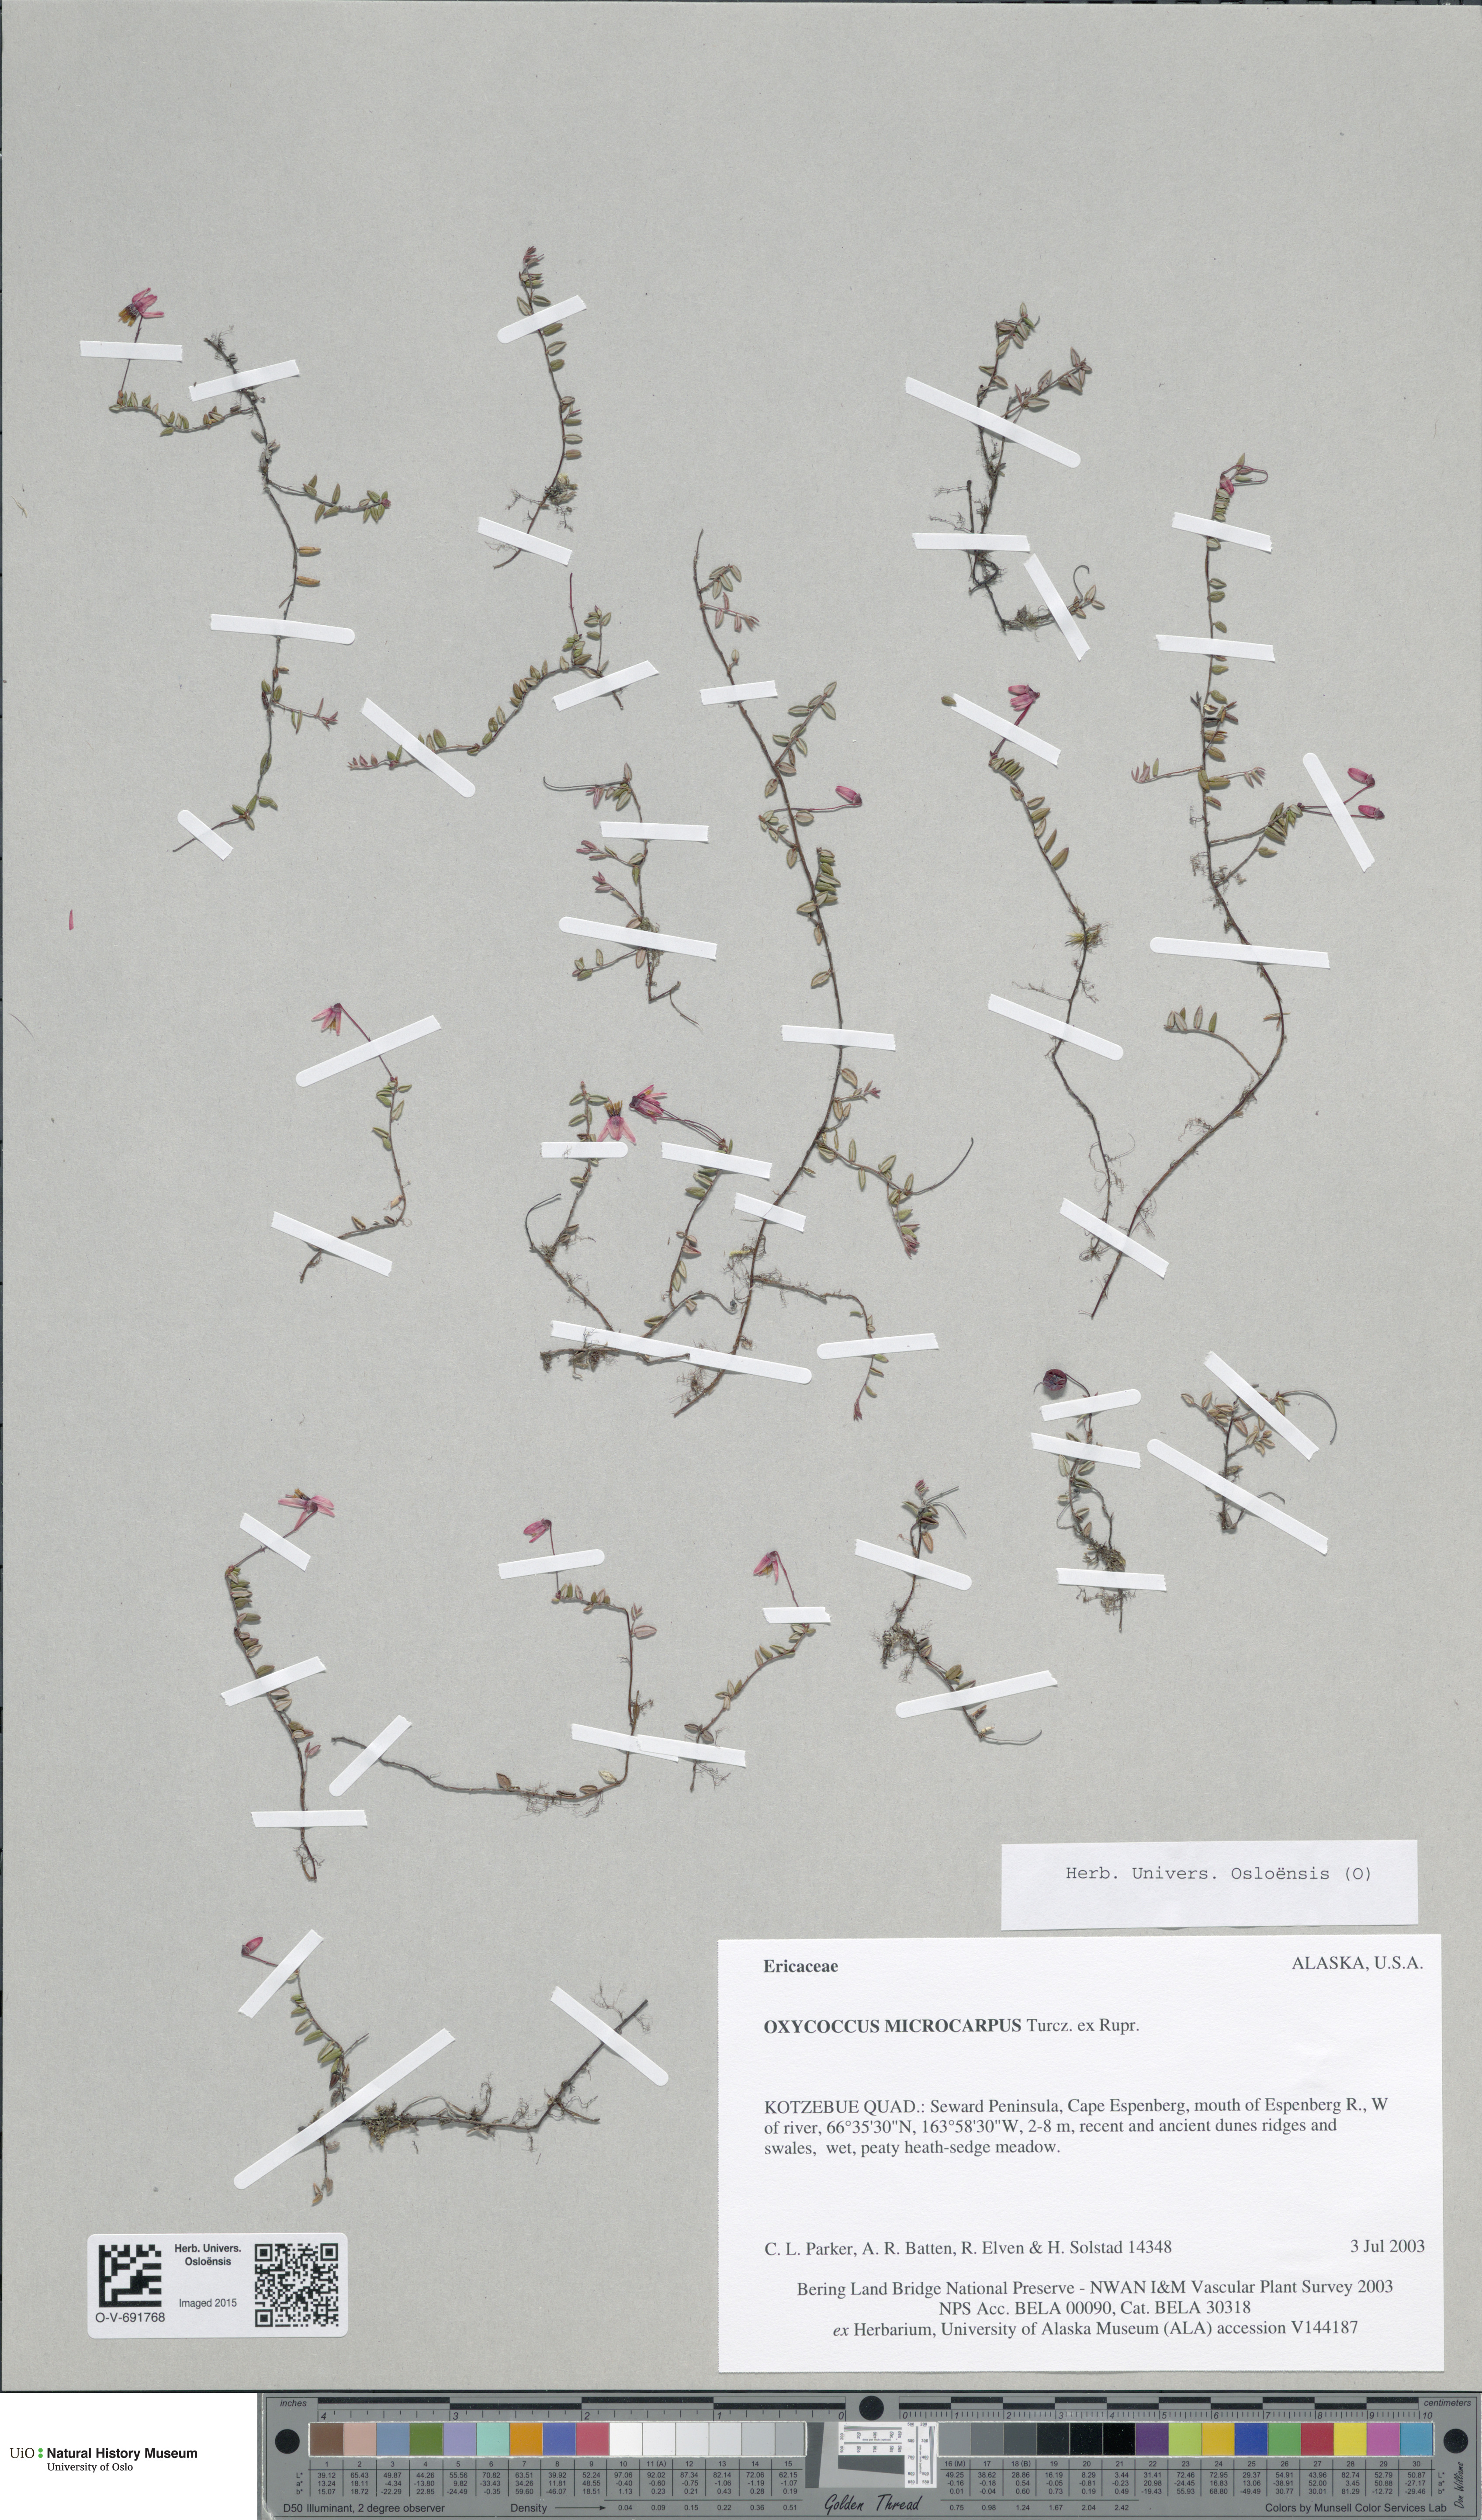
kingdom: Plantae
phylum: Tracheophyta
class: Magnoliopsida
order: Ericales
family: Ericaceae
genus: Vaccinium
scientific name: Vaccinium microcarpum
